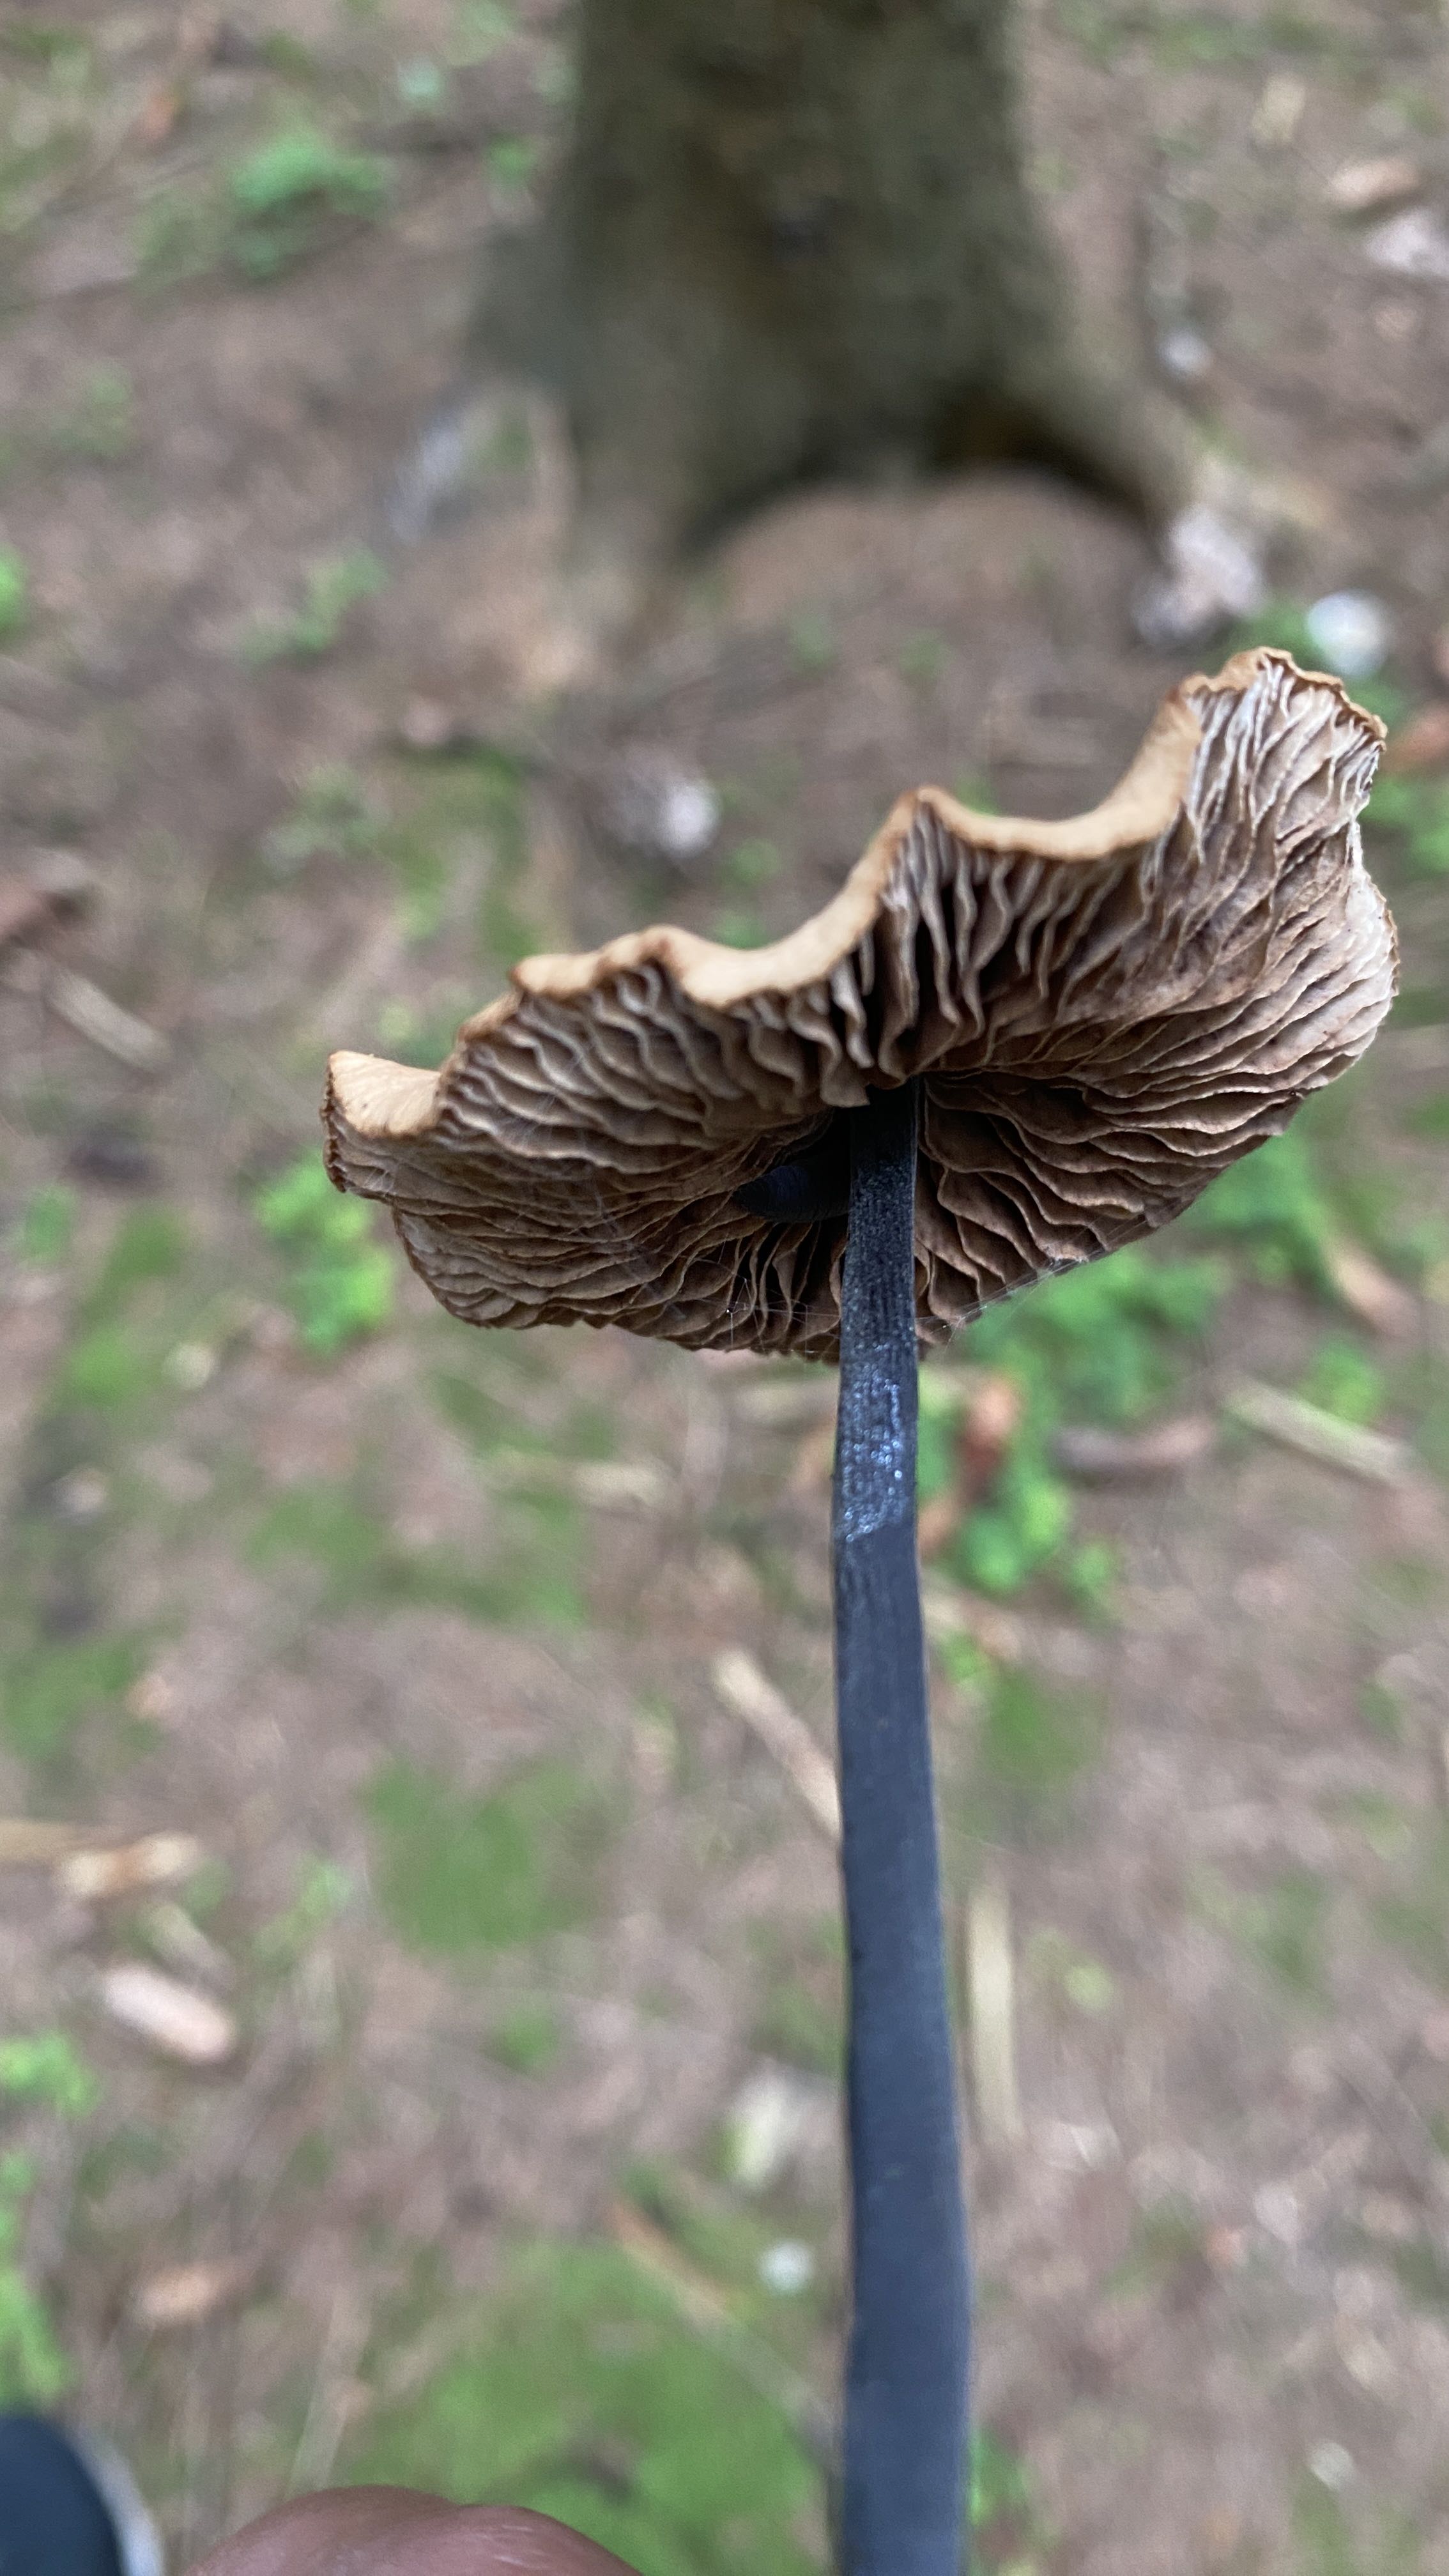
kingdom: Fungi
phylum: Basidiomycota
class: Agaricomycetes
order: Agaricales
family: Omphalotaceae
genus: Mycetinis
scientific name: Mycetinis alliaceus
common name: stor løghat
